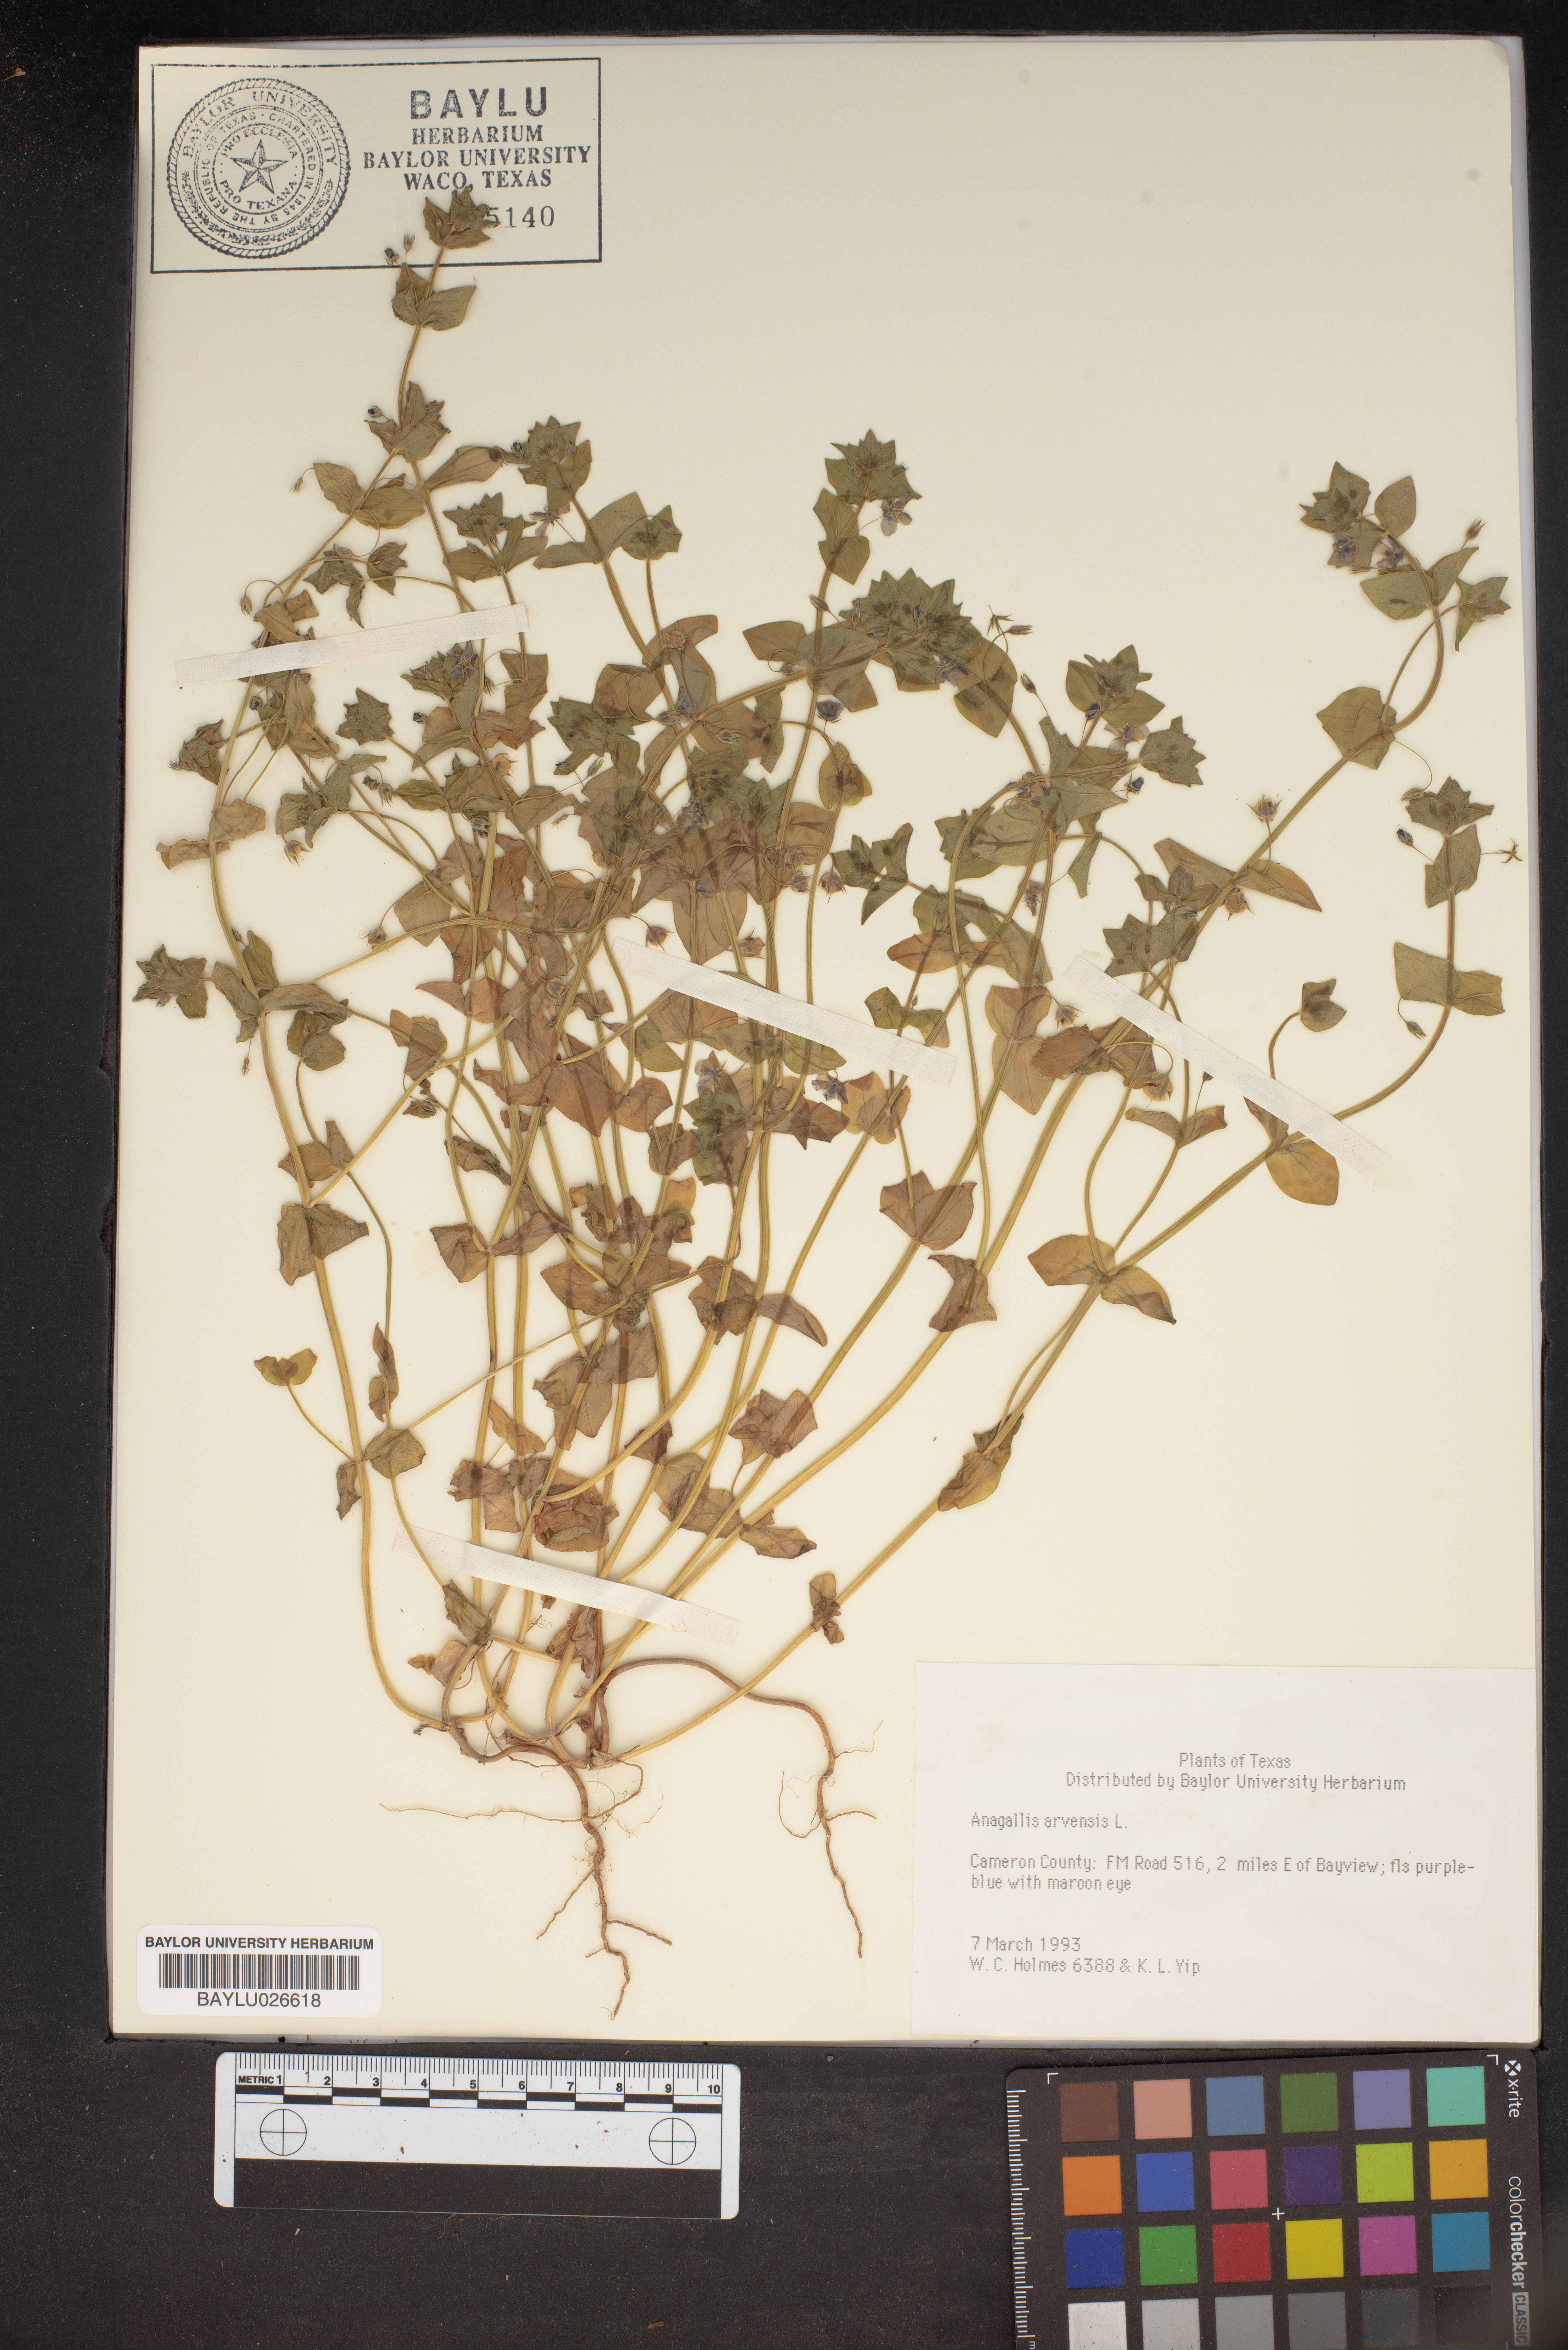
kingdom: Plantae
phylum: Tracheophyta
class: Magnoliopsida
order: Ericales
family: Primulaceae
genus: Lysimachia
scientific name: Lysimachia arvensis
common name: Scarlet pimpernel
